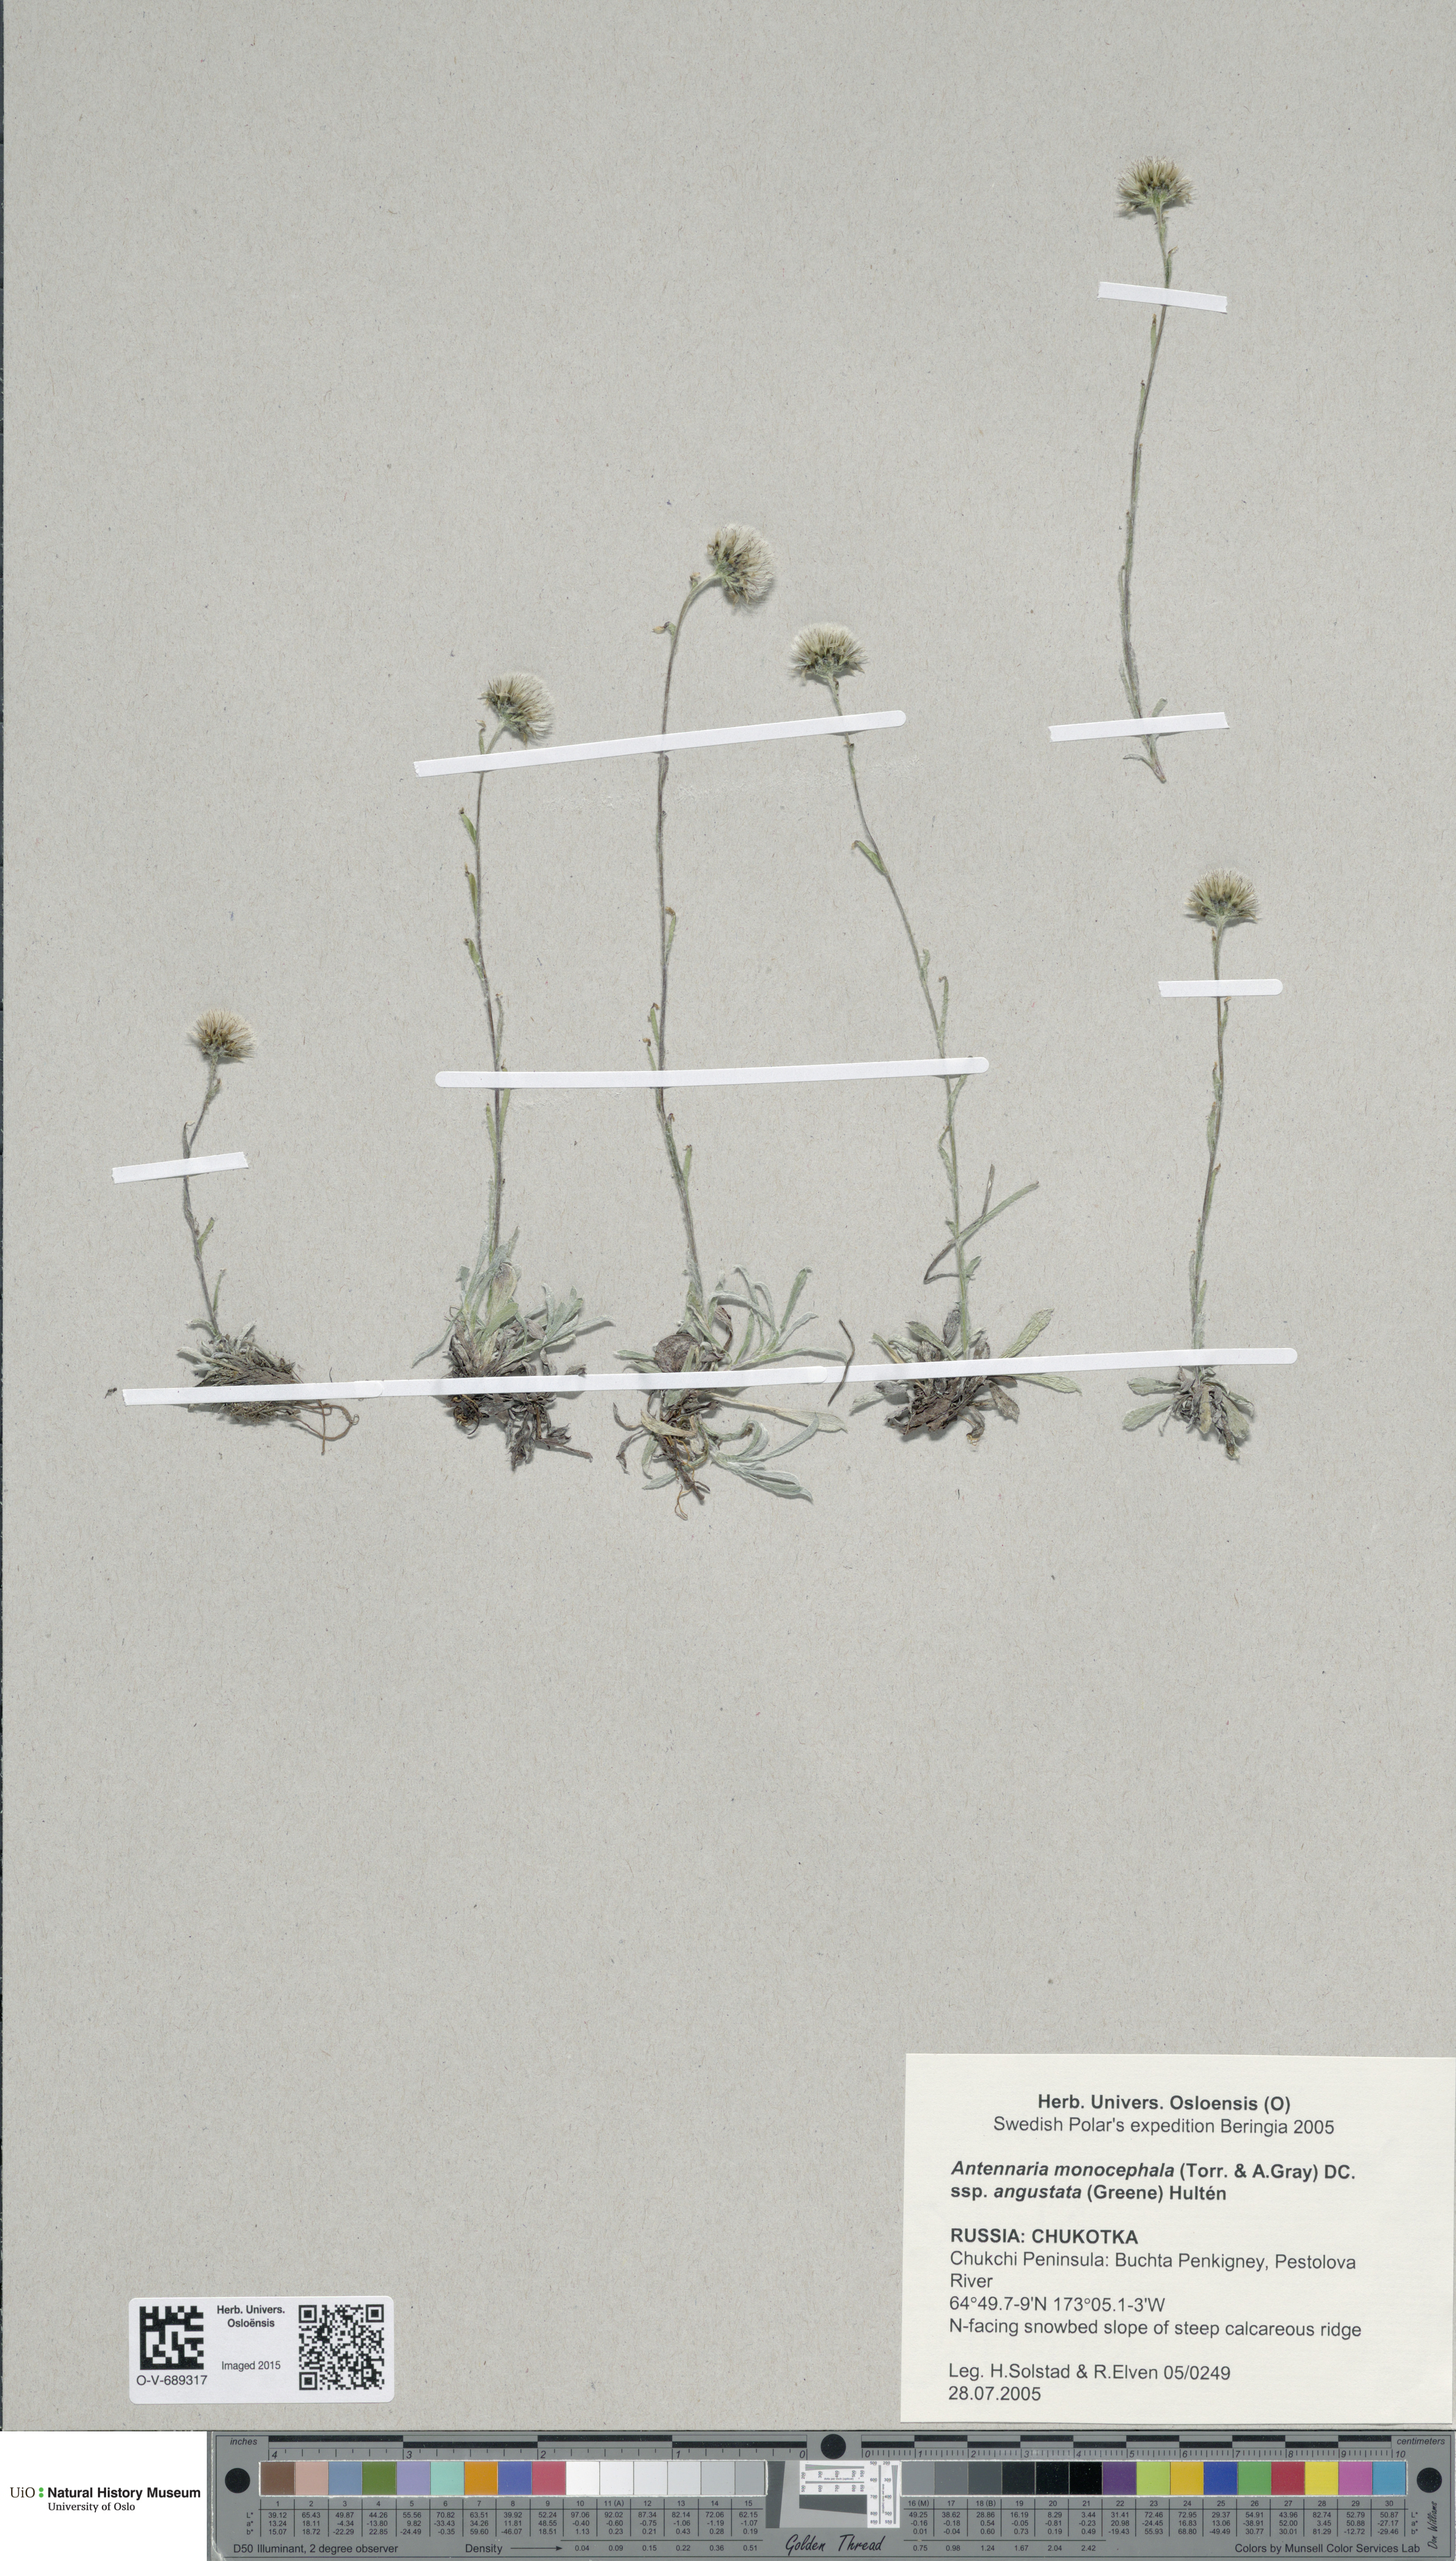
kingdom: Plantae
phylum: Tracheophyta
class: Magnoliopsida
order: Asterales
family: Asteraceae
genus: Antennaria
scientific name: Antennaria monocephala
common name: Pygmy pussytoes
